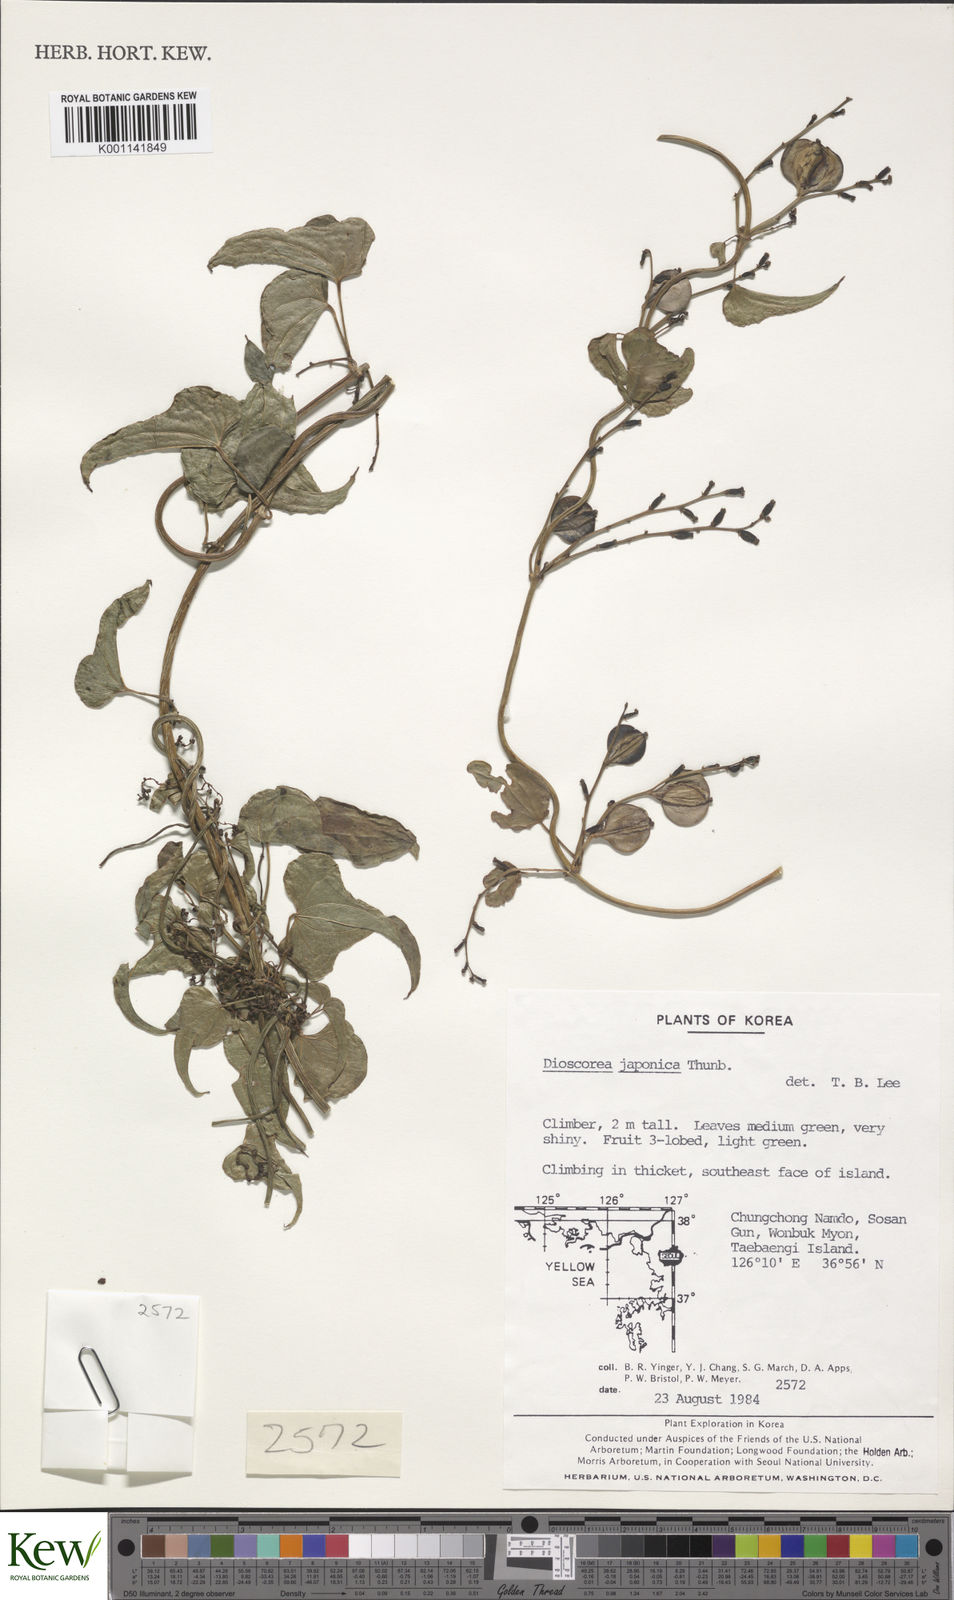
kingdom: Plantae
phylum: Tracheophyta
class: Liliopsida
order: Dioscoreales
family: Dioscoreaceae
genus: Dioscorea
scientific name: Dioscorea japonica
